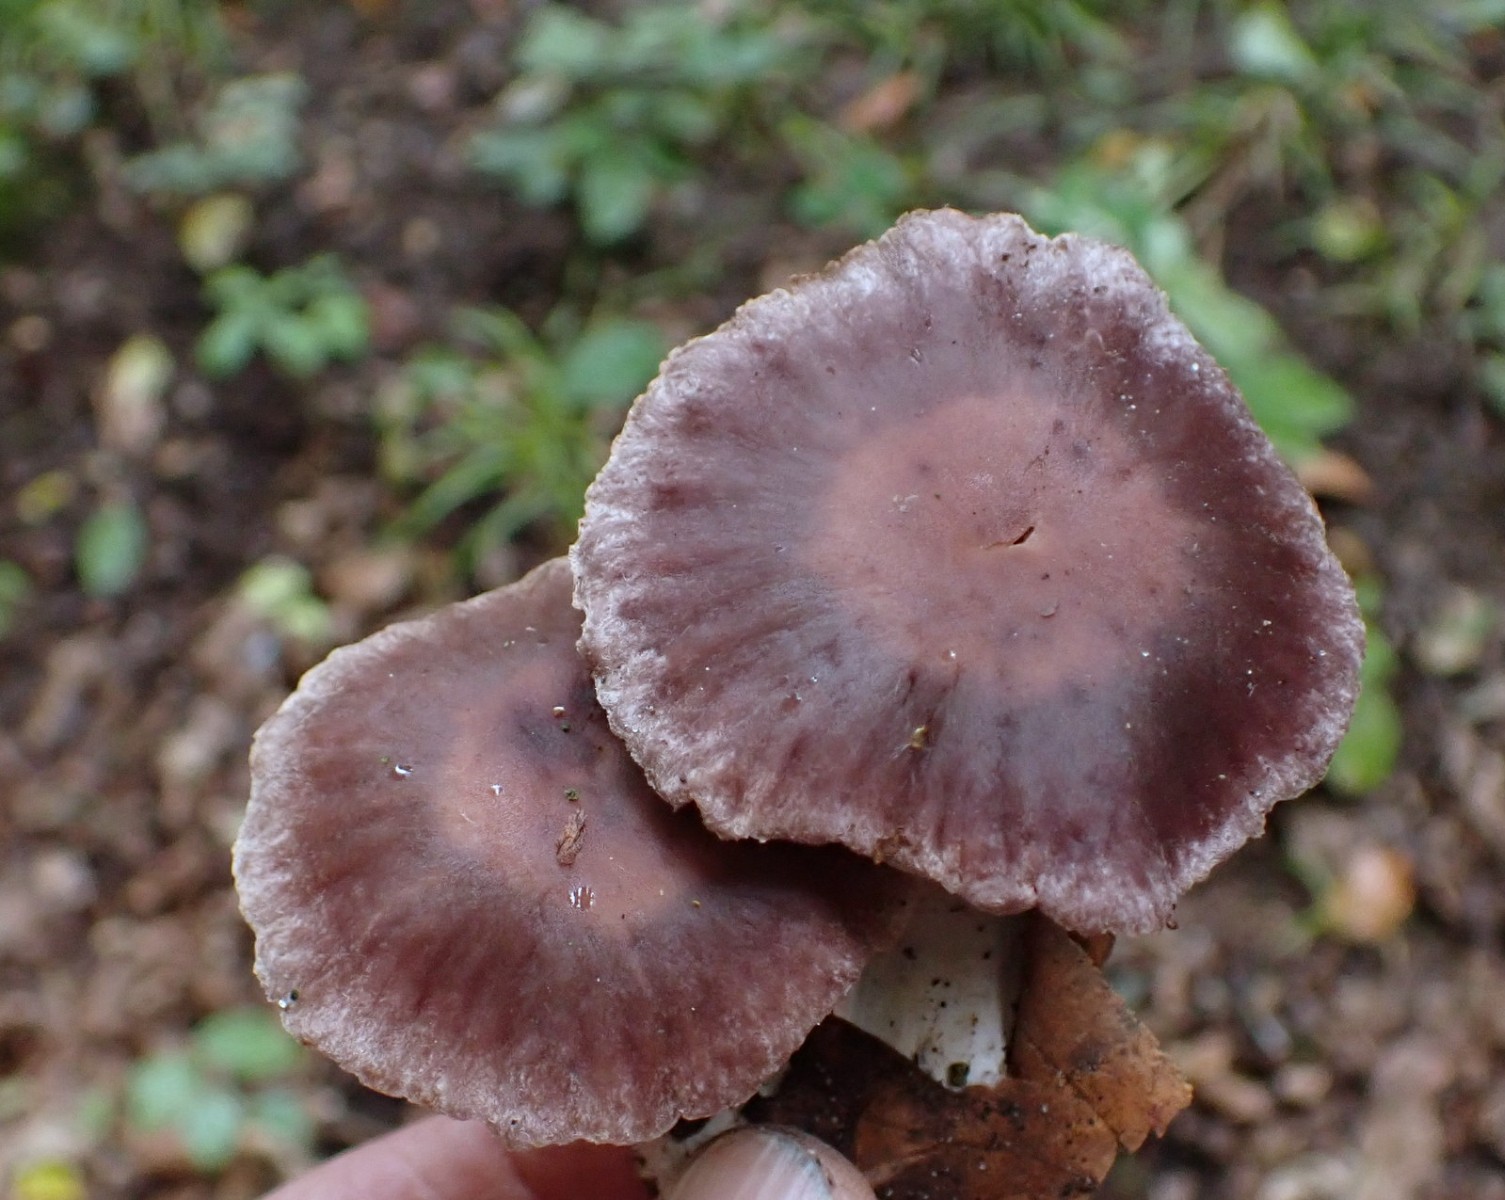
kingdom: Fungi
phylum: Basidiomycota
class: Agaricomycetes
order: Agaricales
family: Cortinariaceae
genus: Cortinarius
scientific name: Cortinarius
